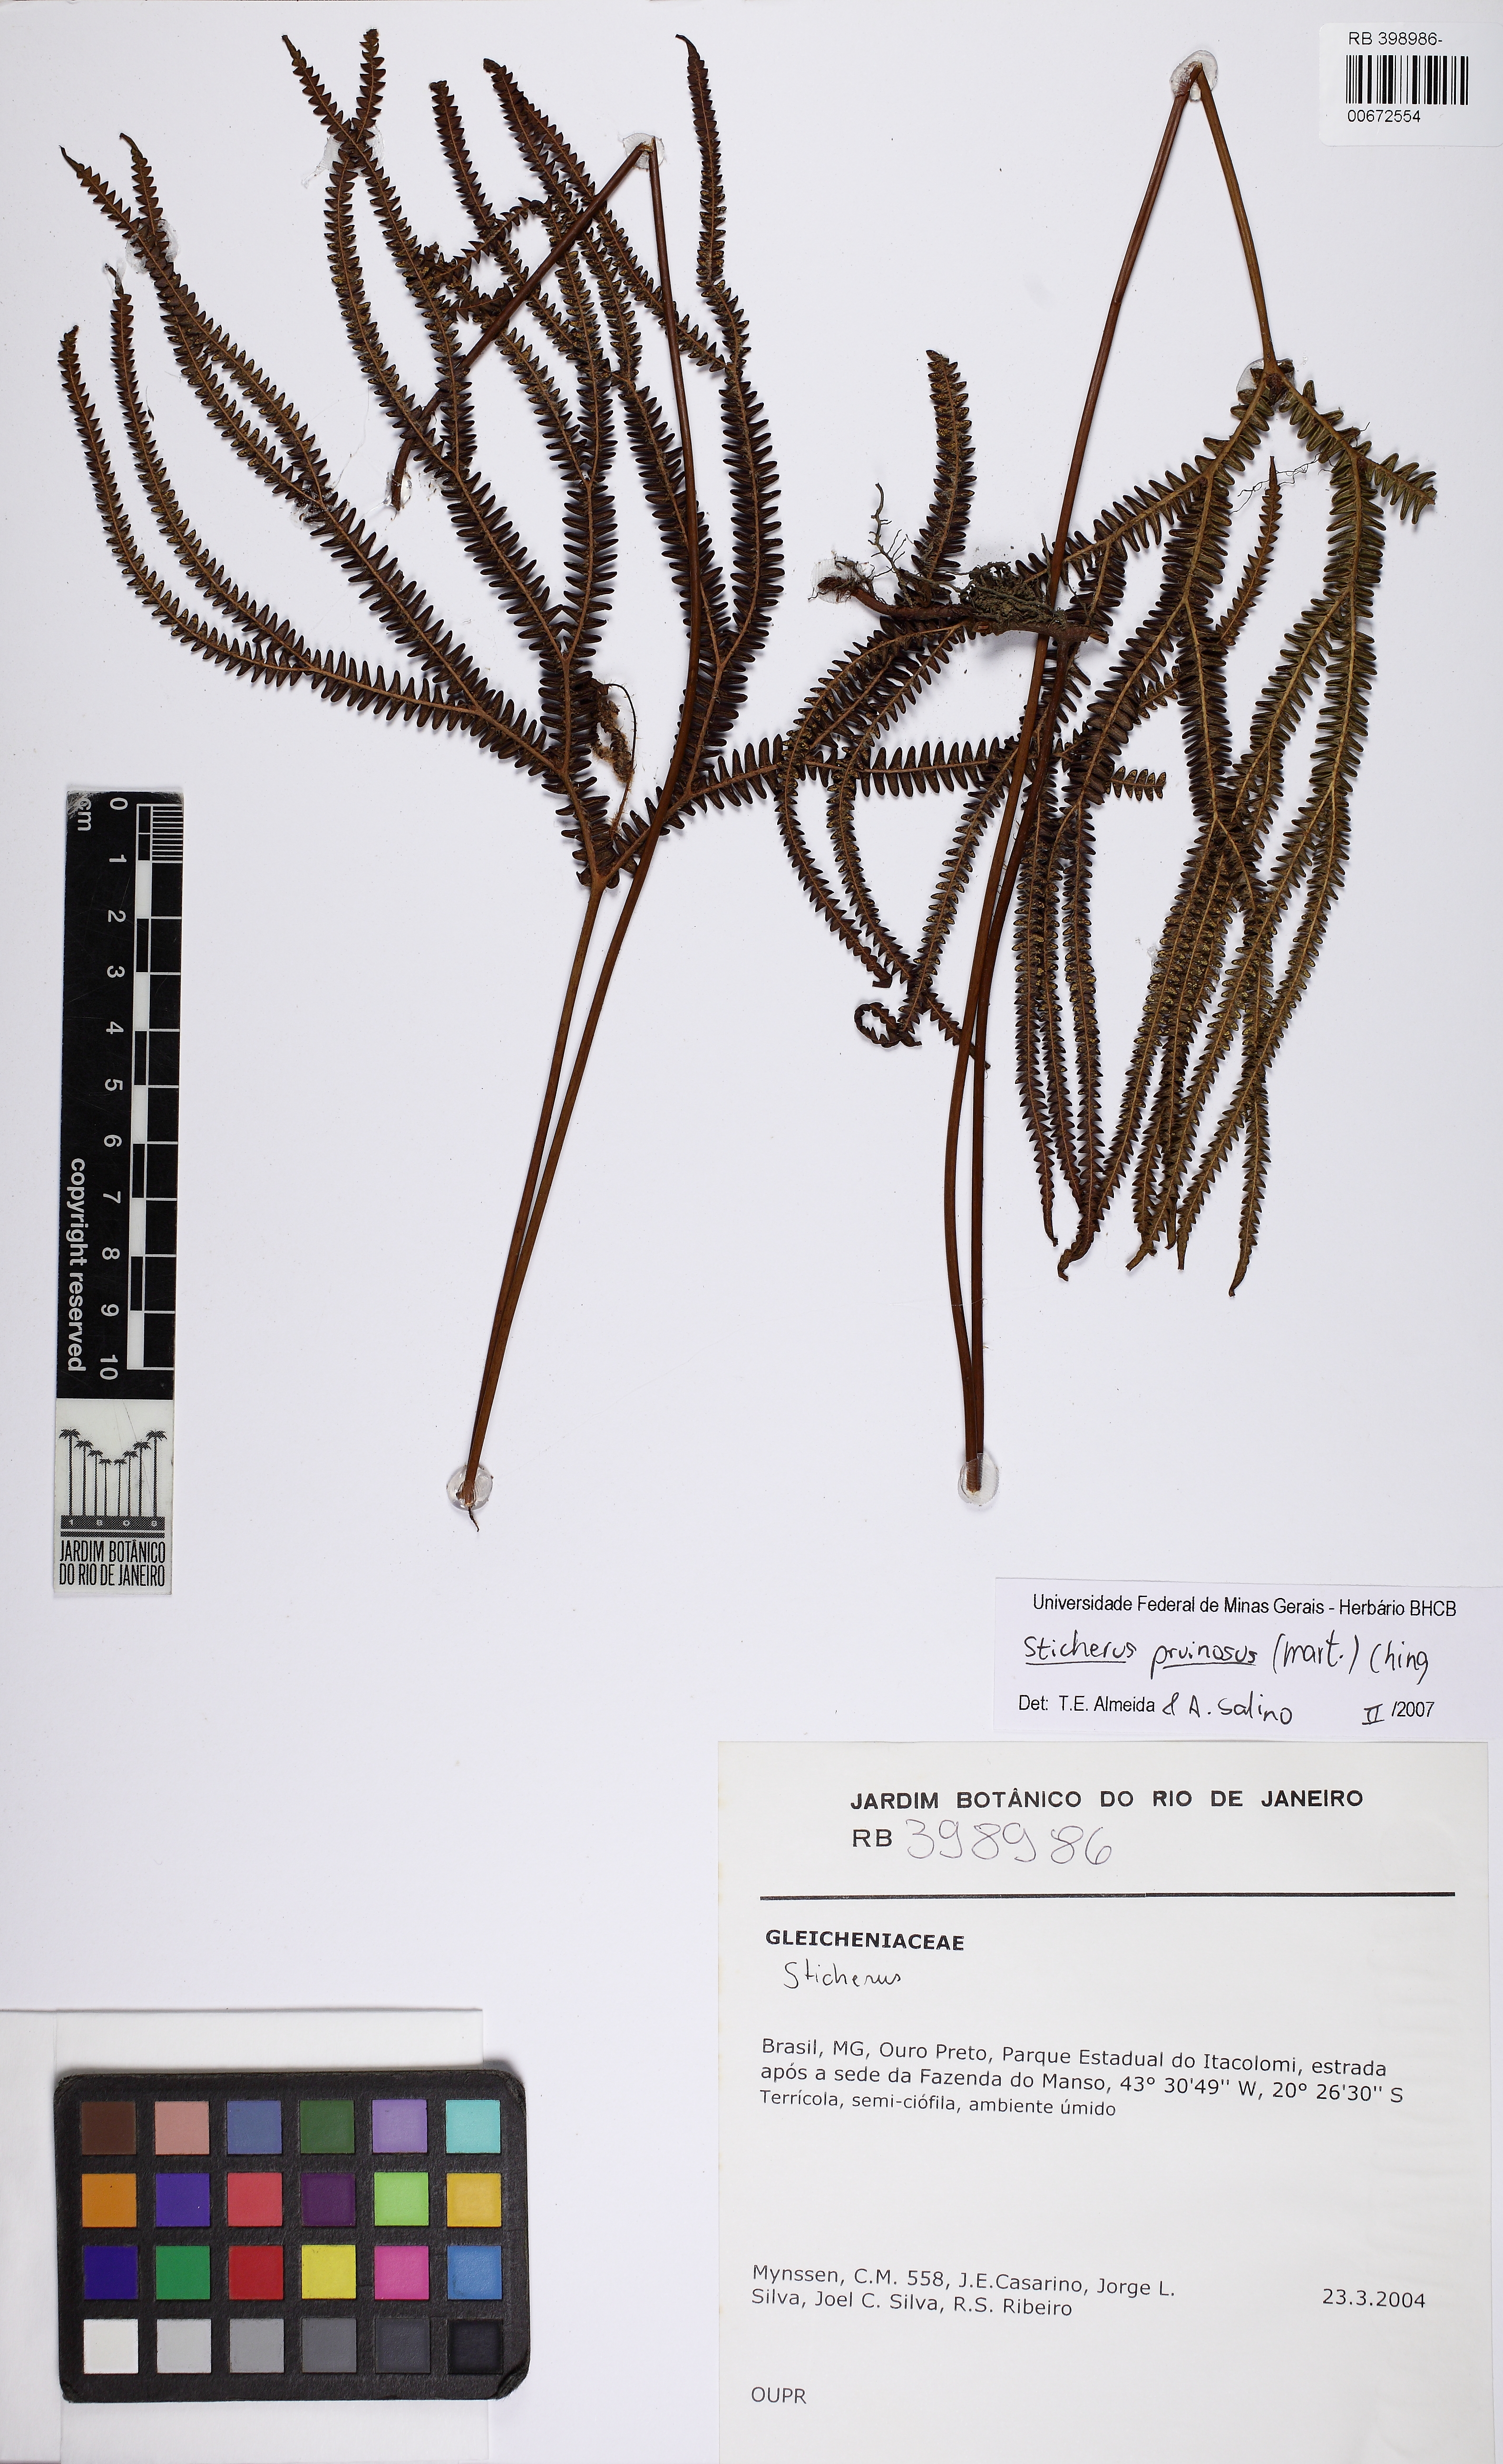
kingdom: Plantae
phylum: Tracheophyta
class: Polypodiopsida
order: Gleicheniales
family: Gleicheniaceae
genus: Sticherus
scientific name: Sticherus pruinosus
